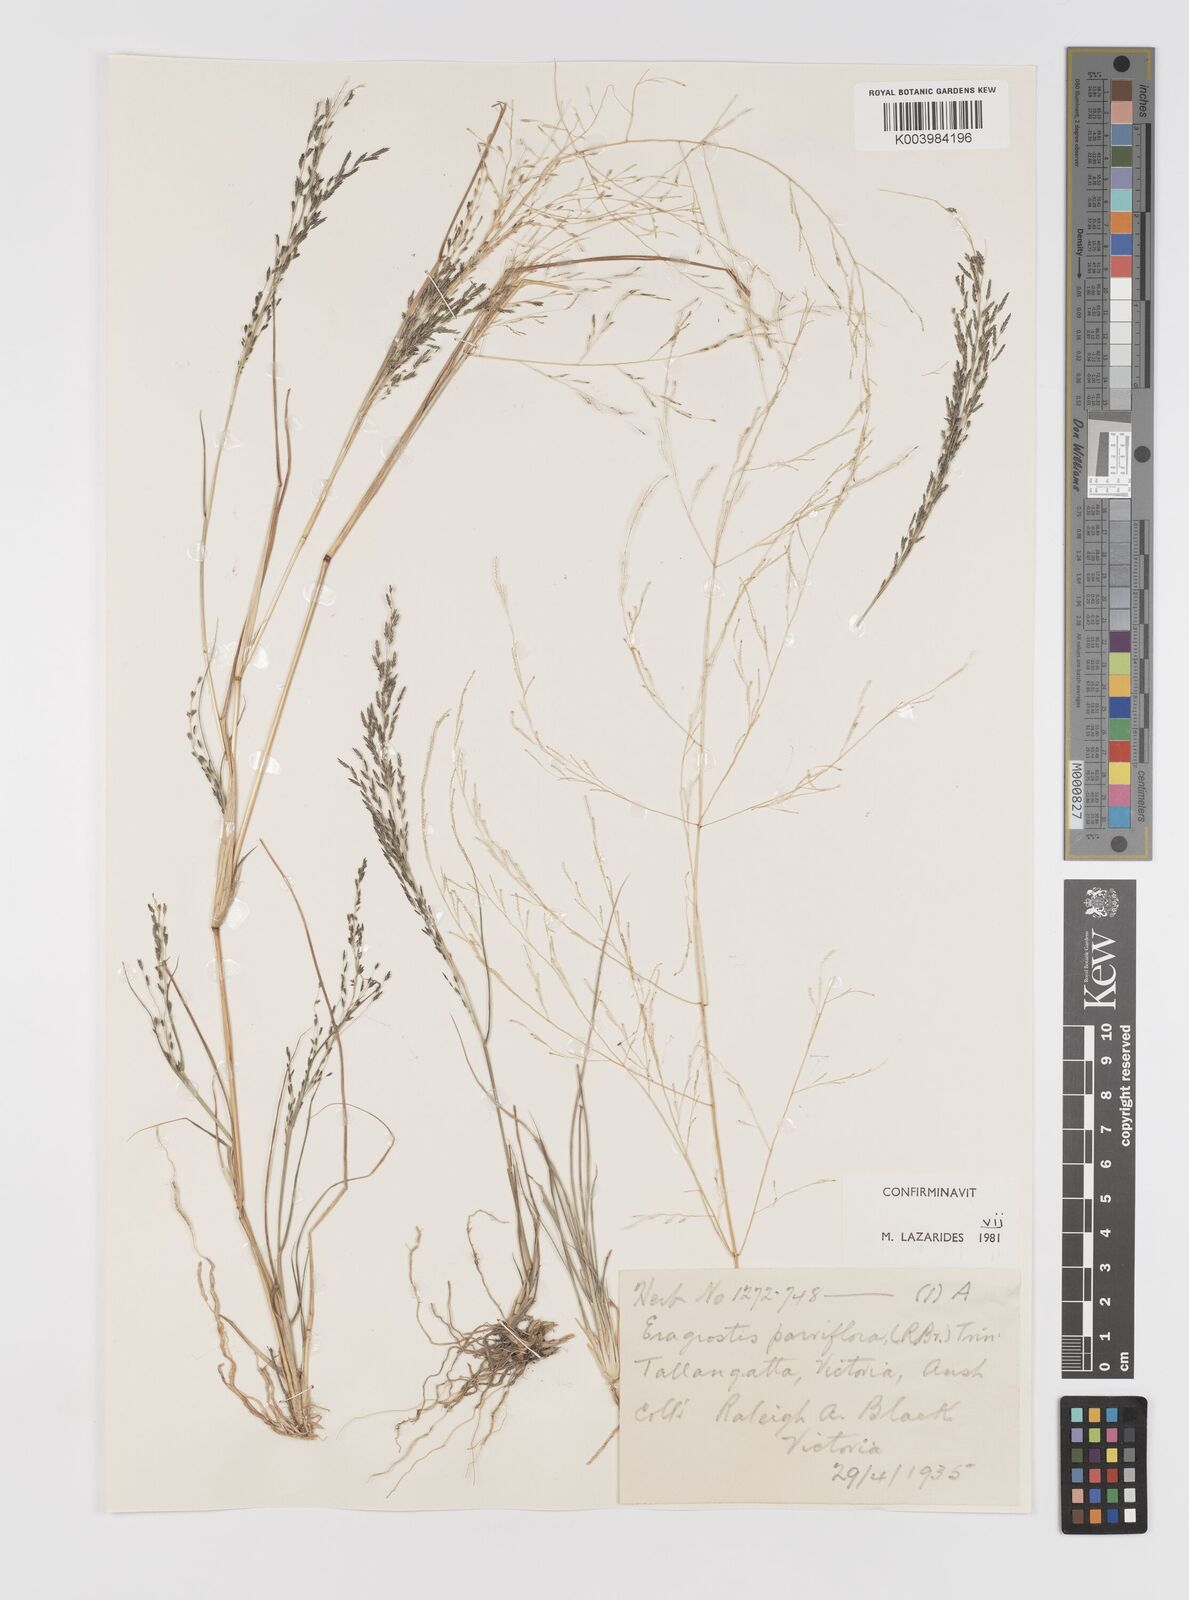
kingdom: Plantae
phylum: Tracheophyta
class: Liliopsida
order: Poales
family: Poaceae
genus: Eragrostis
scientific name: Eragrostis parviflora
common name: Weeping love-grass
